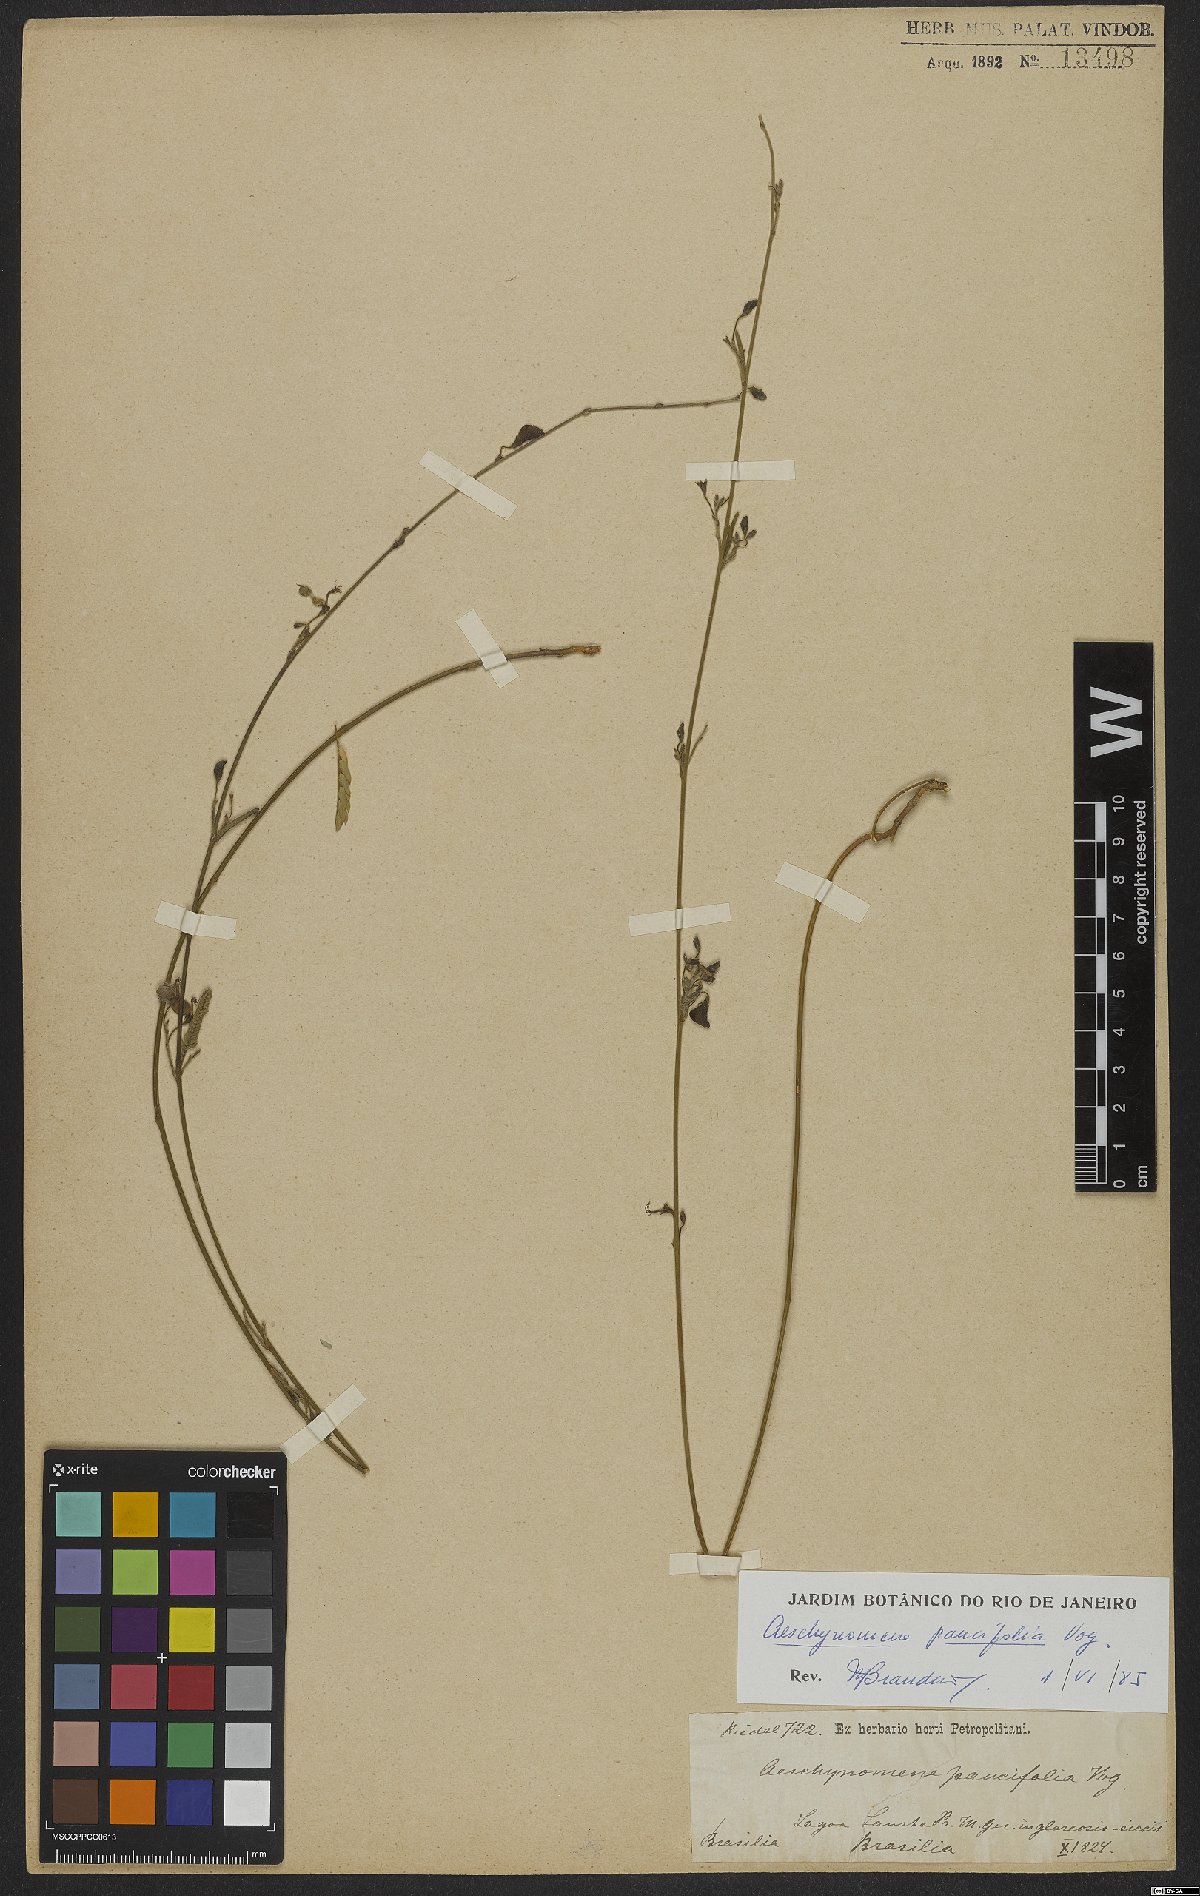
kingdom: Plantae
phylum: Tracheophyta
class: Magnoliopsida
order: Fabales
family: Fabaceae
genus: Ctenodon
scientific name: Ctenodon paucifolius
